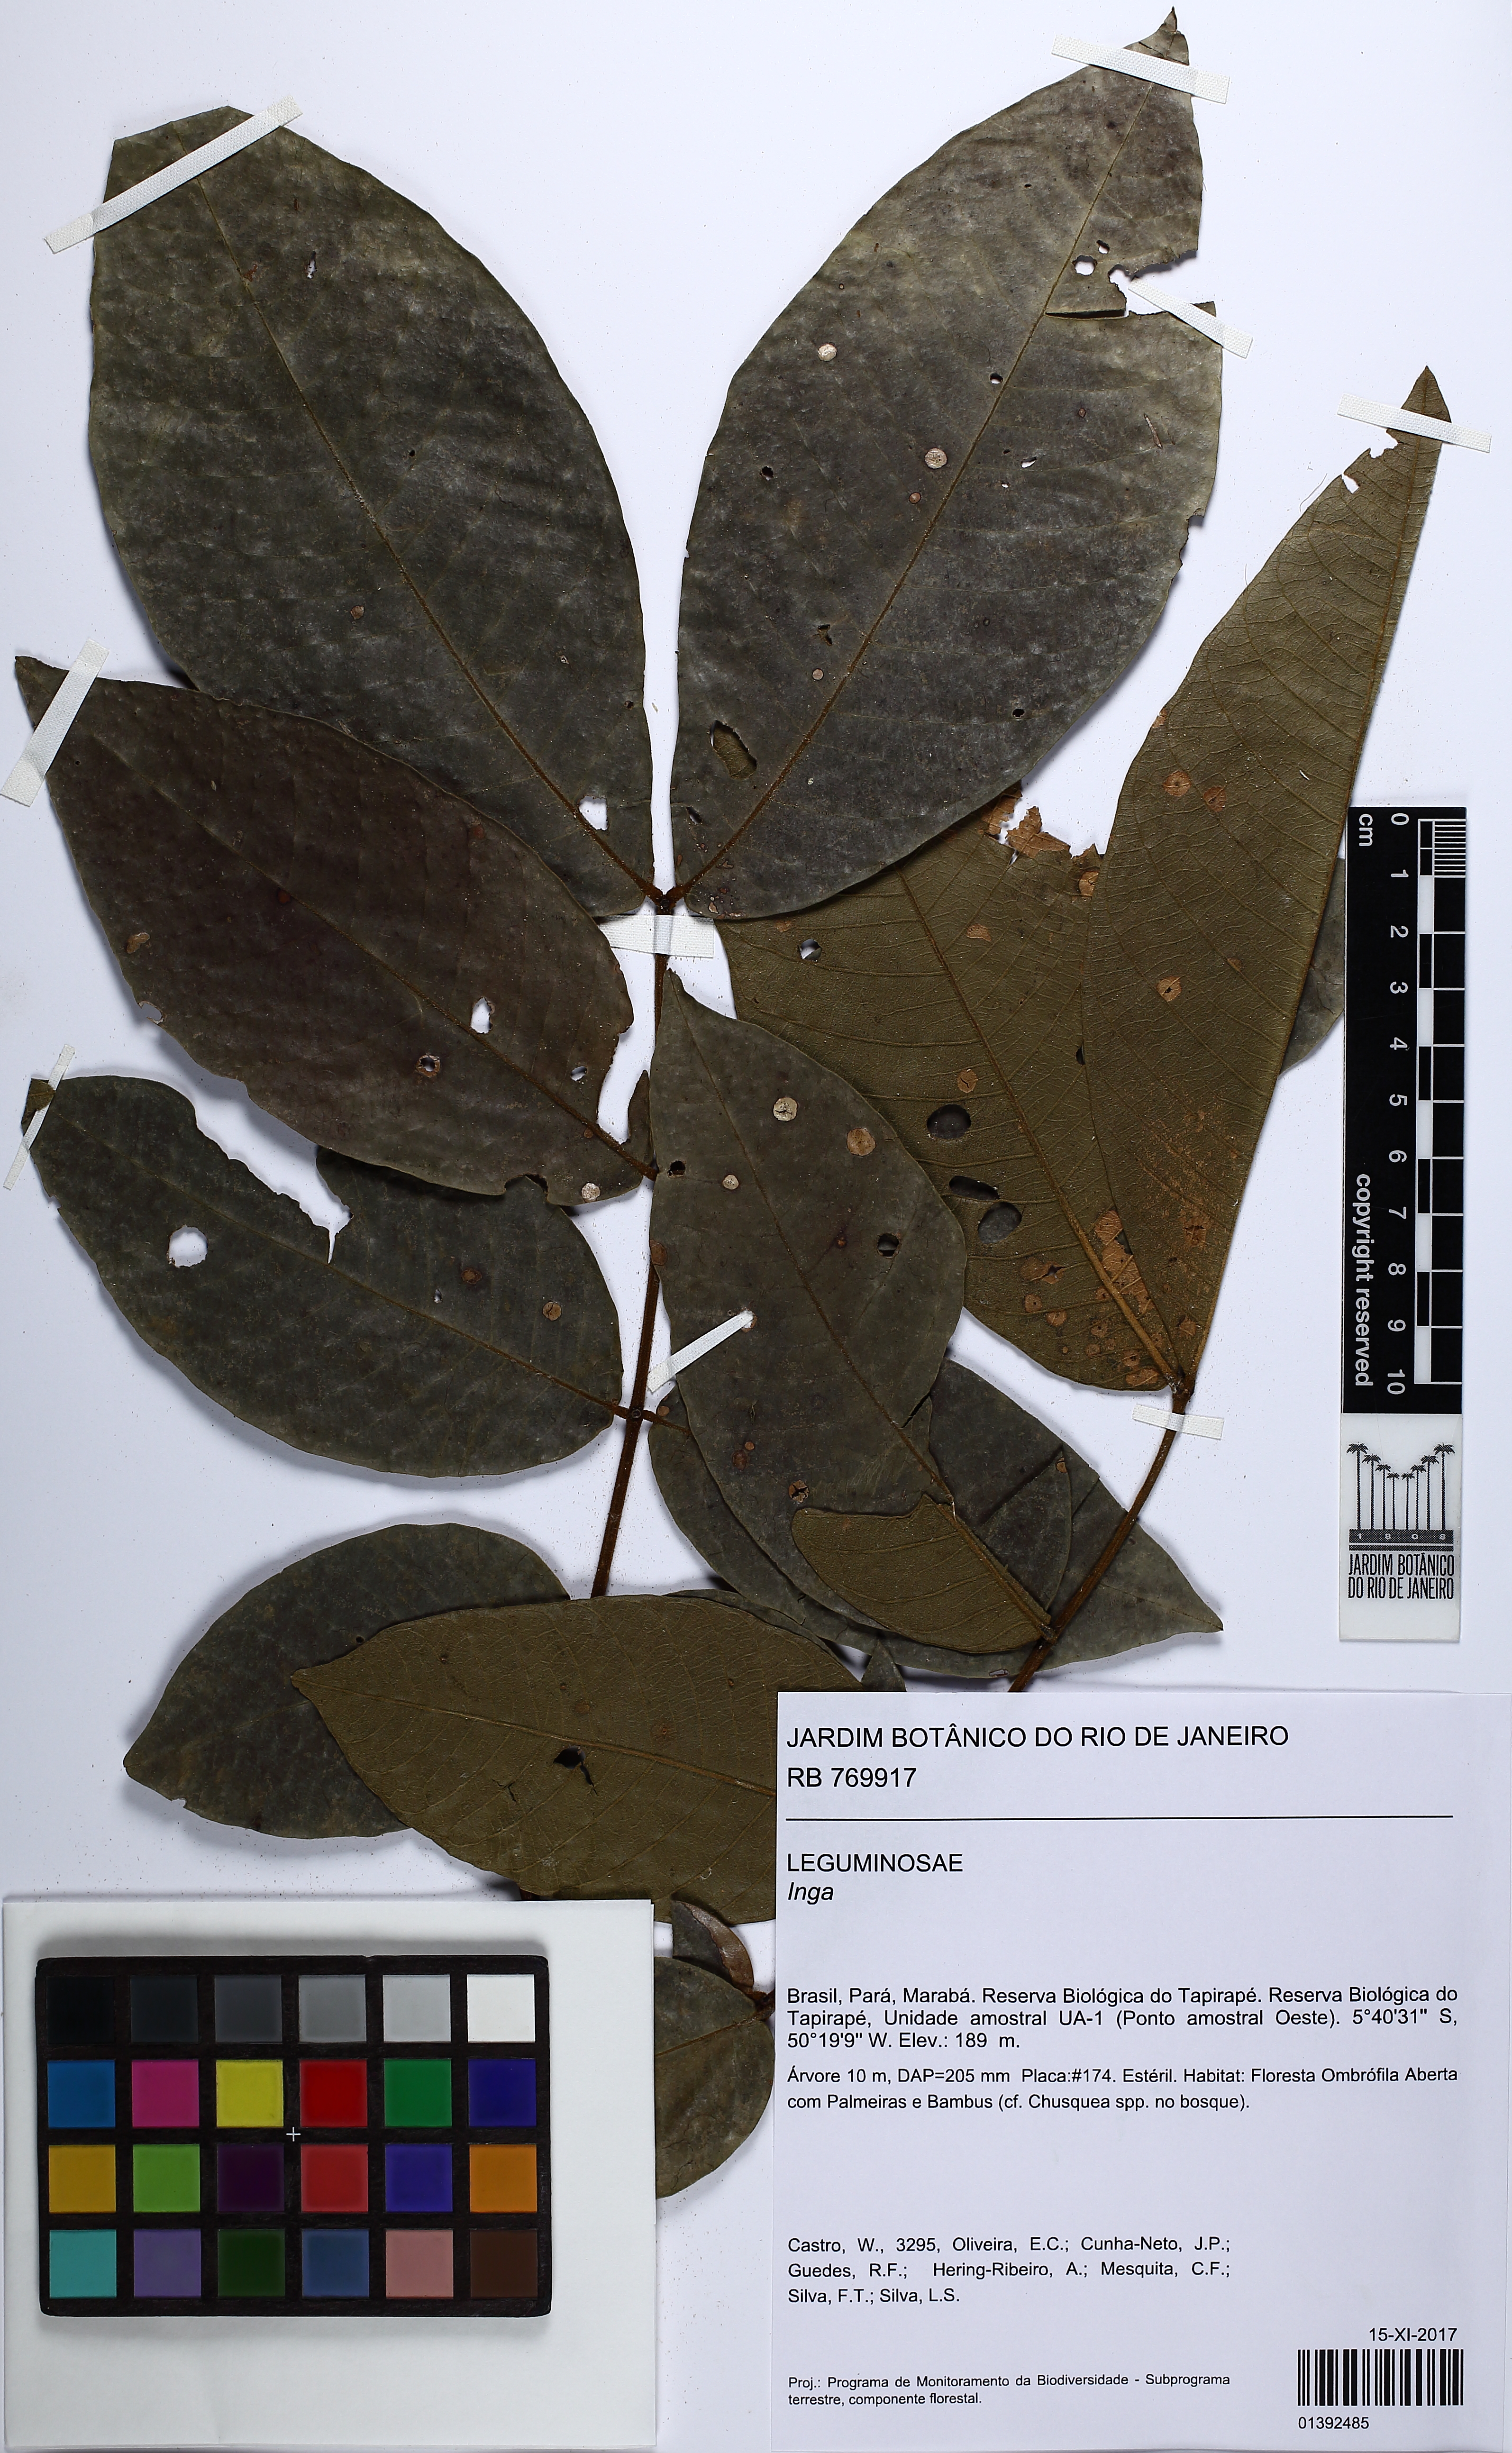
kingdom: Plantae
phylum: Tracheophyta
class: Magnoliopsida
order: Fabales
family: Fabaceae
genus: Inga
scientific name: Inga
